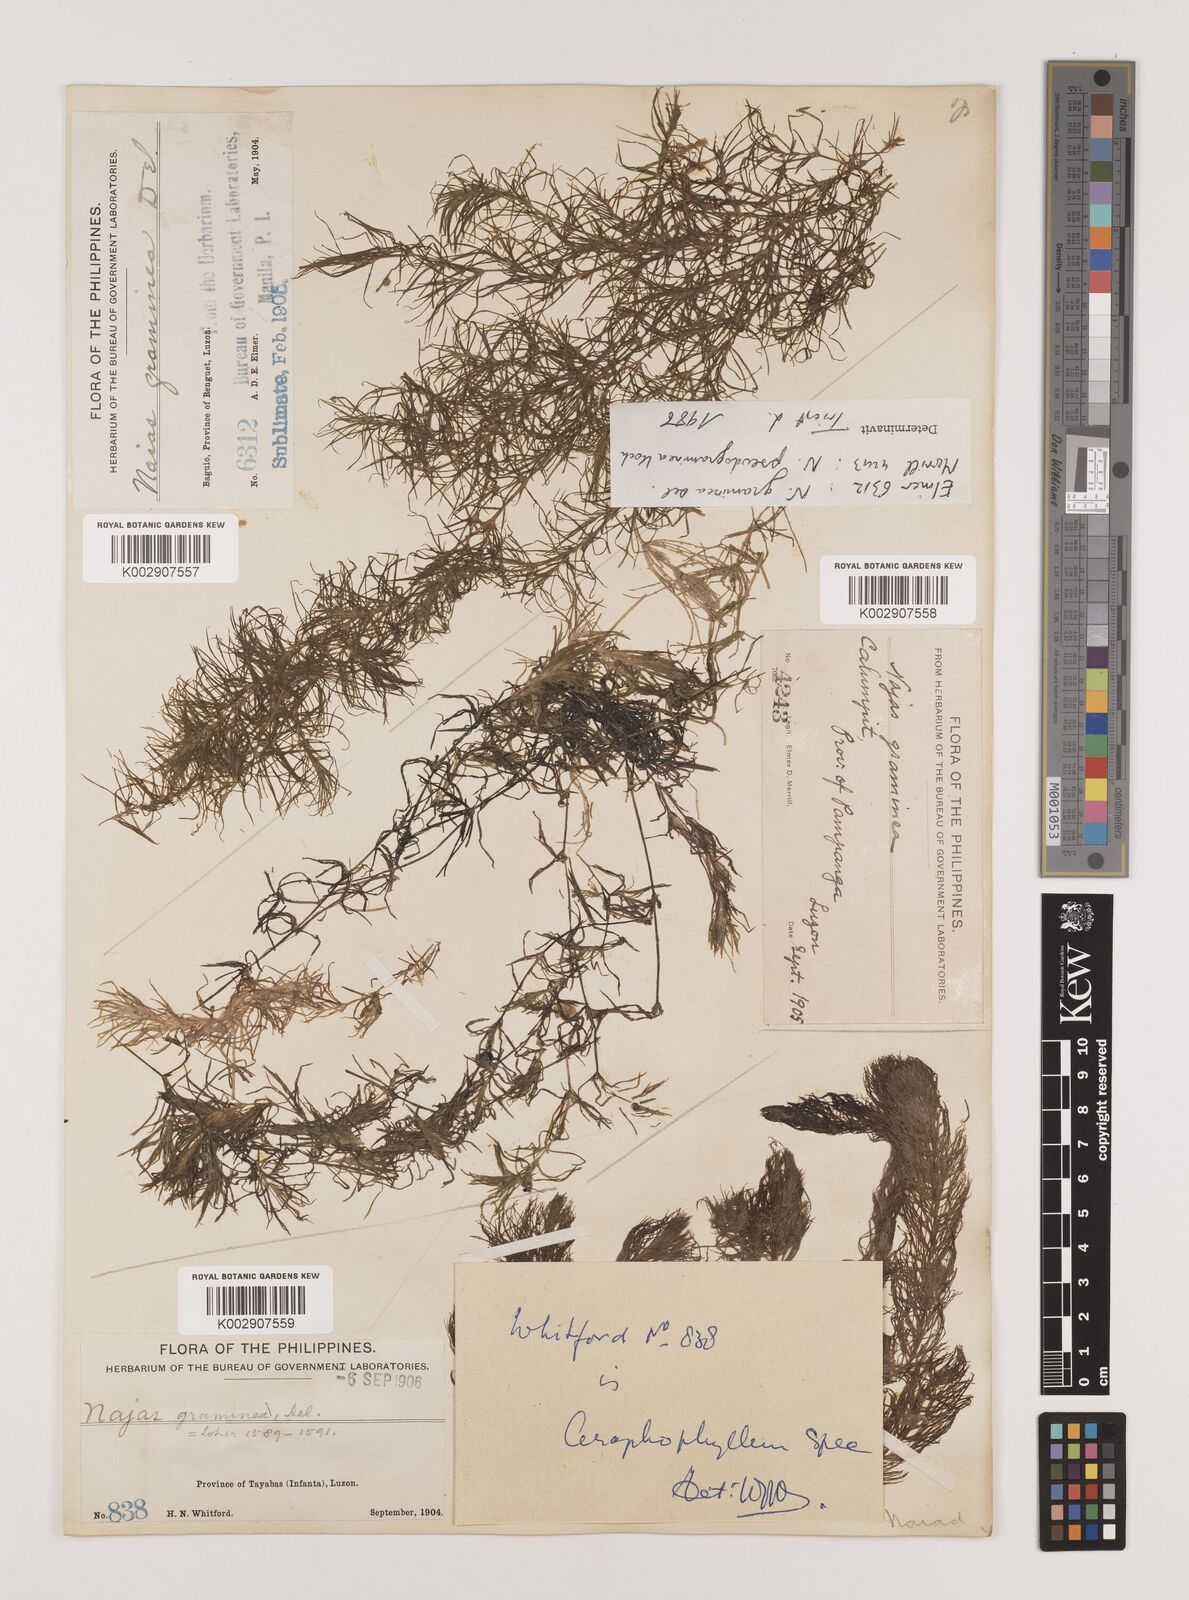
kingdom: Plantae
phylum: Tracheophyta
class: Liliopsida
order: Alismatales
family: Hydrocharitaceae
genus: Najas
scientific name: Najas tenuifolia
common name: Thin-leaved naiad
